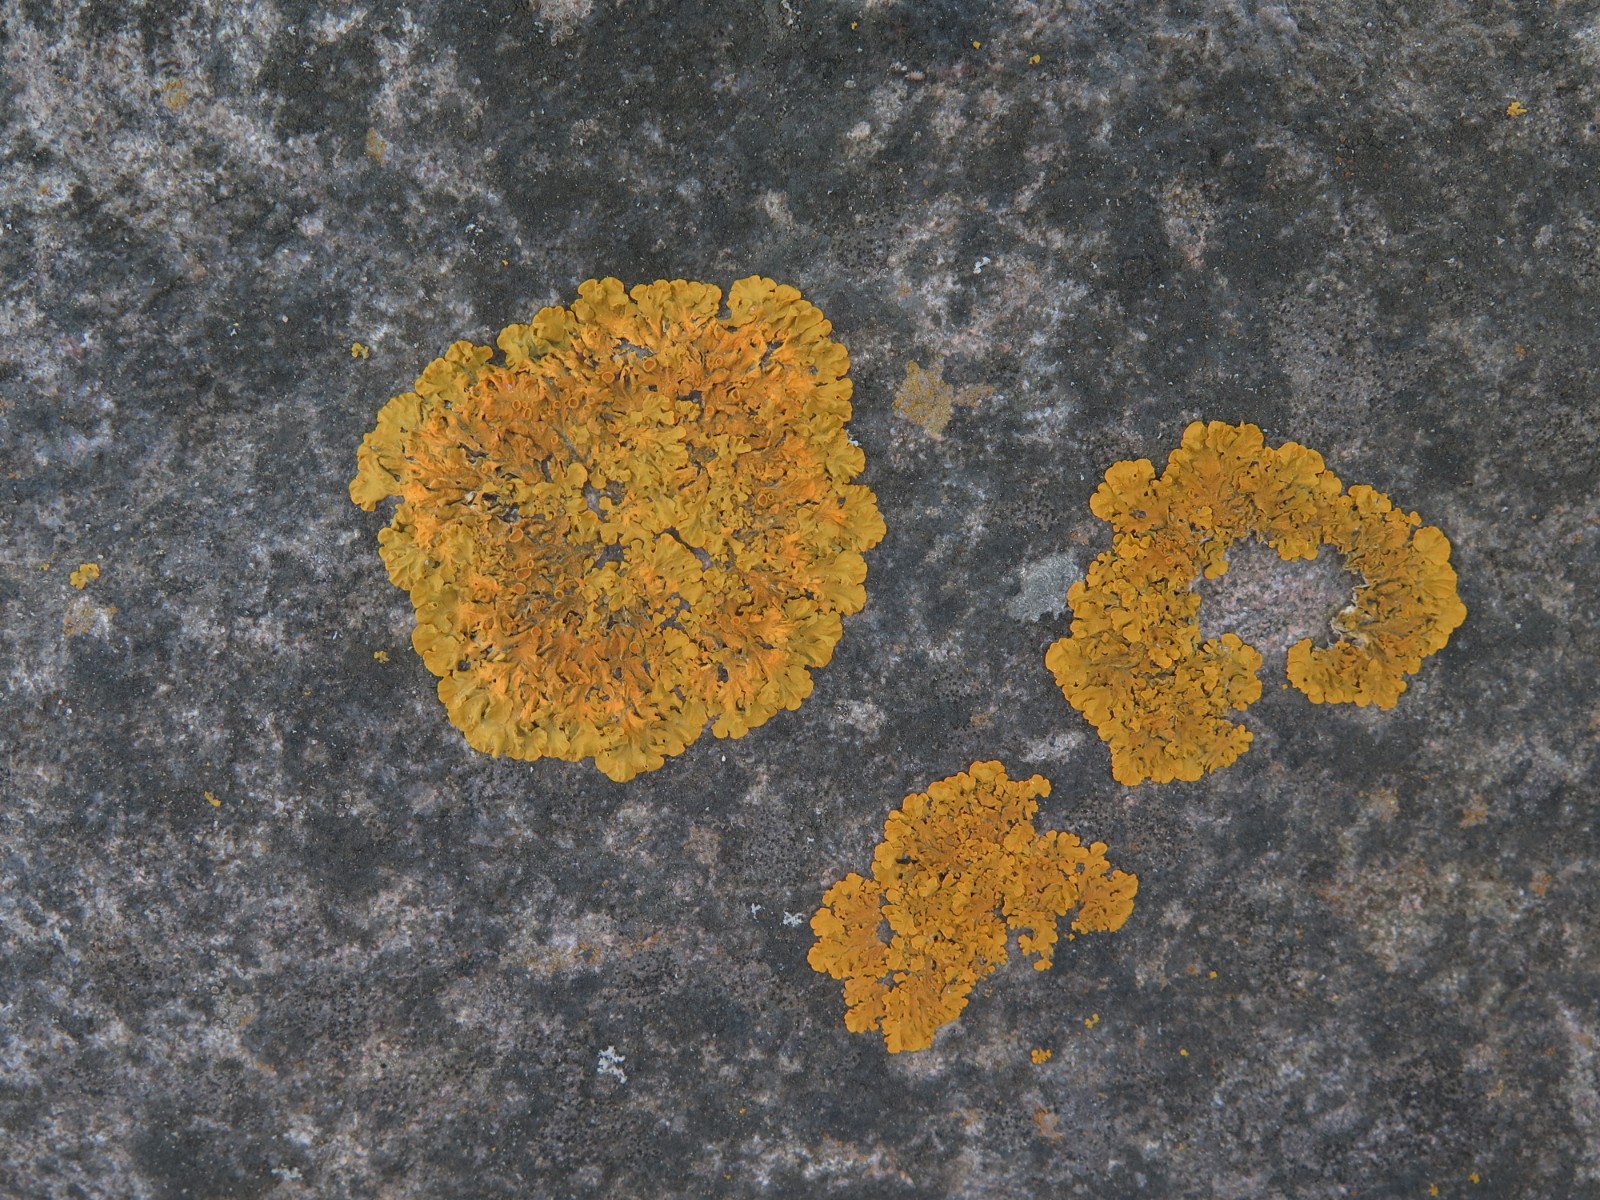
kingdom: Fungi
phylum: Ascomycota
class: Lecanoromycetes
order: Teloschistales
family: Teloschistaceae
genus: Xanthoria
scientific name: Xanthoria parietina
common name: almindelig væggelav
